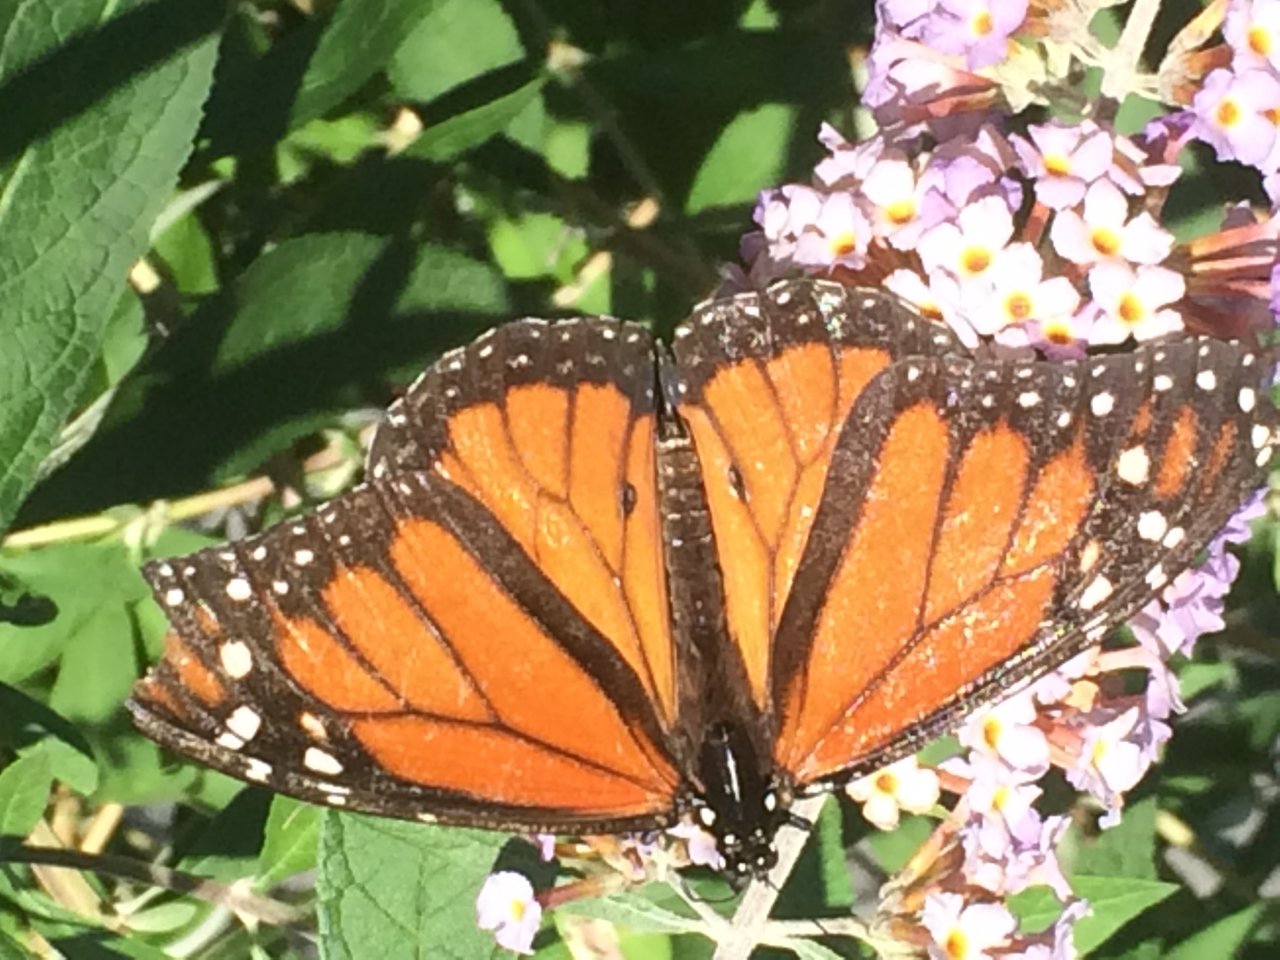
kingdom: Animalia
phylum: Arthropoda
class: Insecta
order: Lepidoptera
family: Nymphalidae
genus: Danaus
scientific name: Danaus plexippus
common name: Monarch
